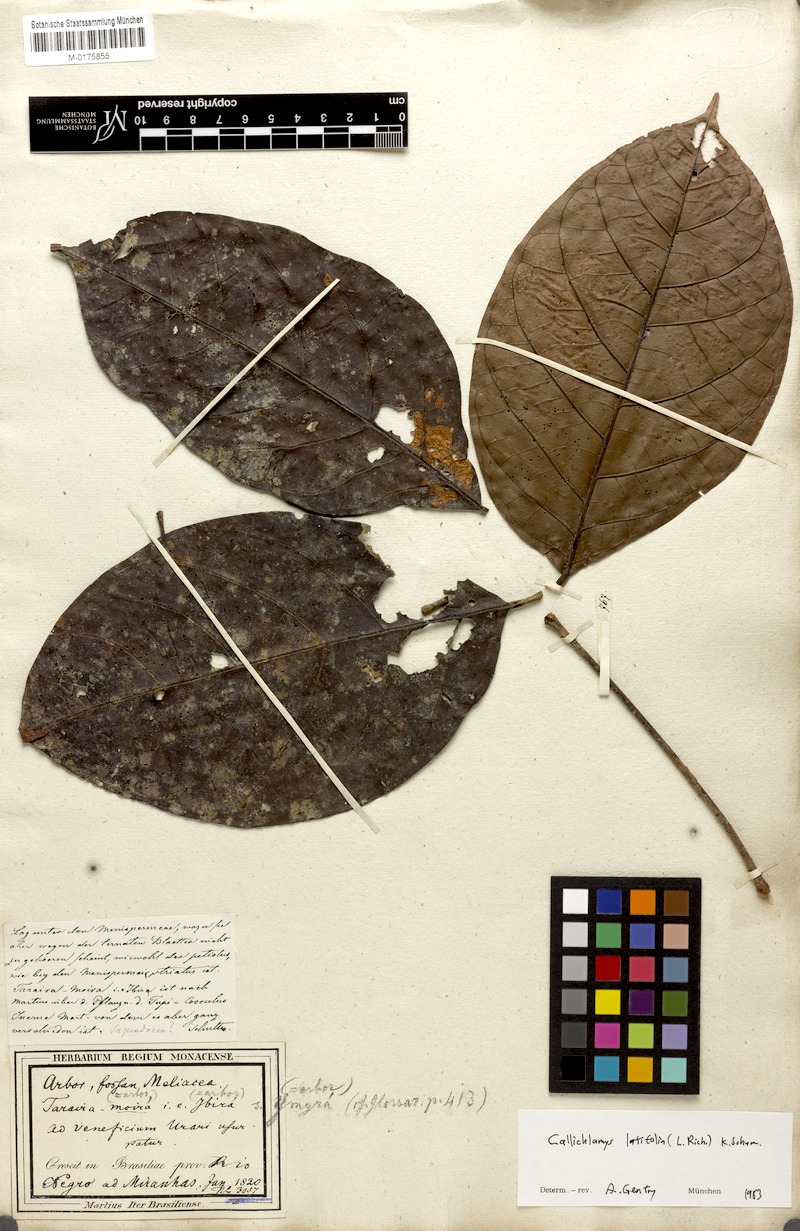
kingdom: Plantae
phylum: Tracheophyta
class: Magnoliopsida
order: Lamiales
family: Bignoniaceae
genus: Callichlamys
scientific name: Callichlamys latifolia
